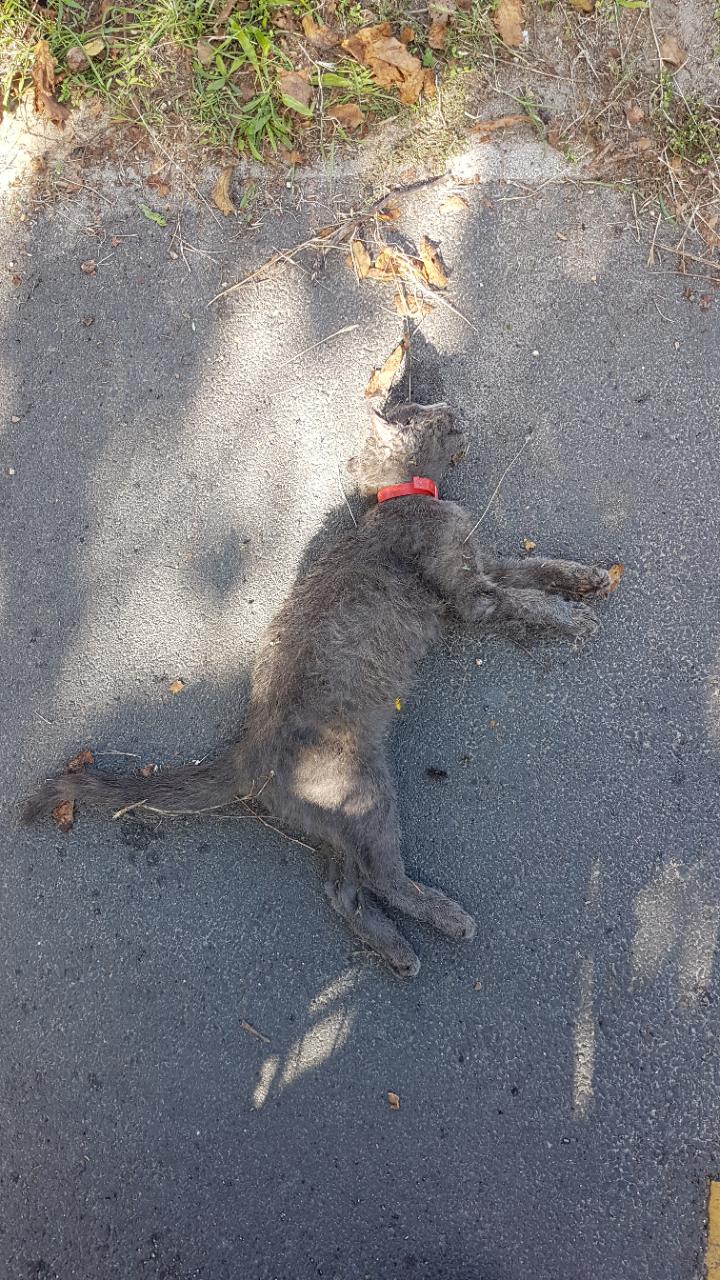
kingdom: Animalia
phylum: Chordata
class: Mammalia
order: Carnivora
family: Felidae
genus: Felis
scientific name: Felis catus
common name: Domestic cat
